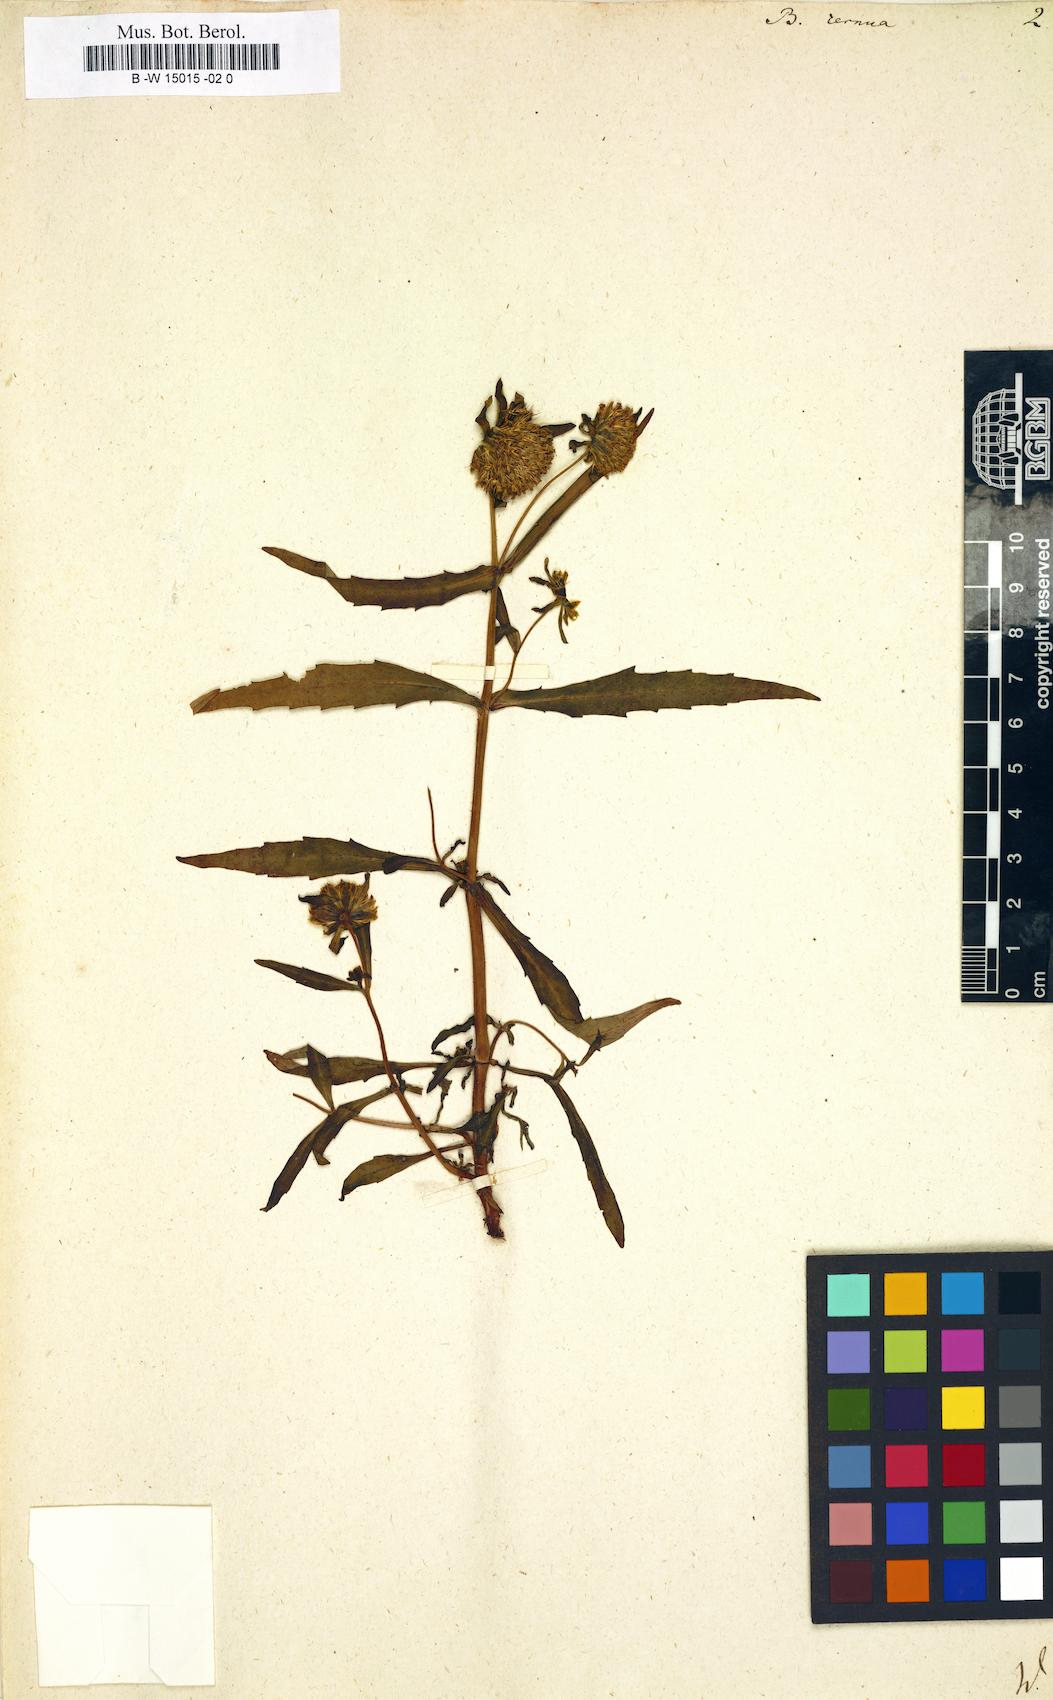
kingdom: Plantae
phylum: Tracheophyta
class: Magnoliopsida
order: Asterales
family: Asteraceae
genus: Bidens
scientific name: Bidens cernua
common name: Nodding bur-marigold
